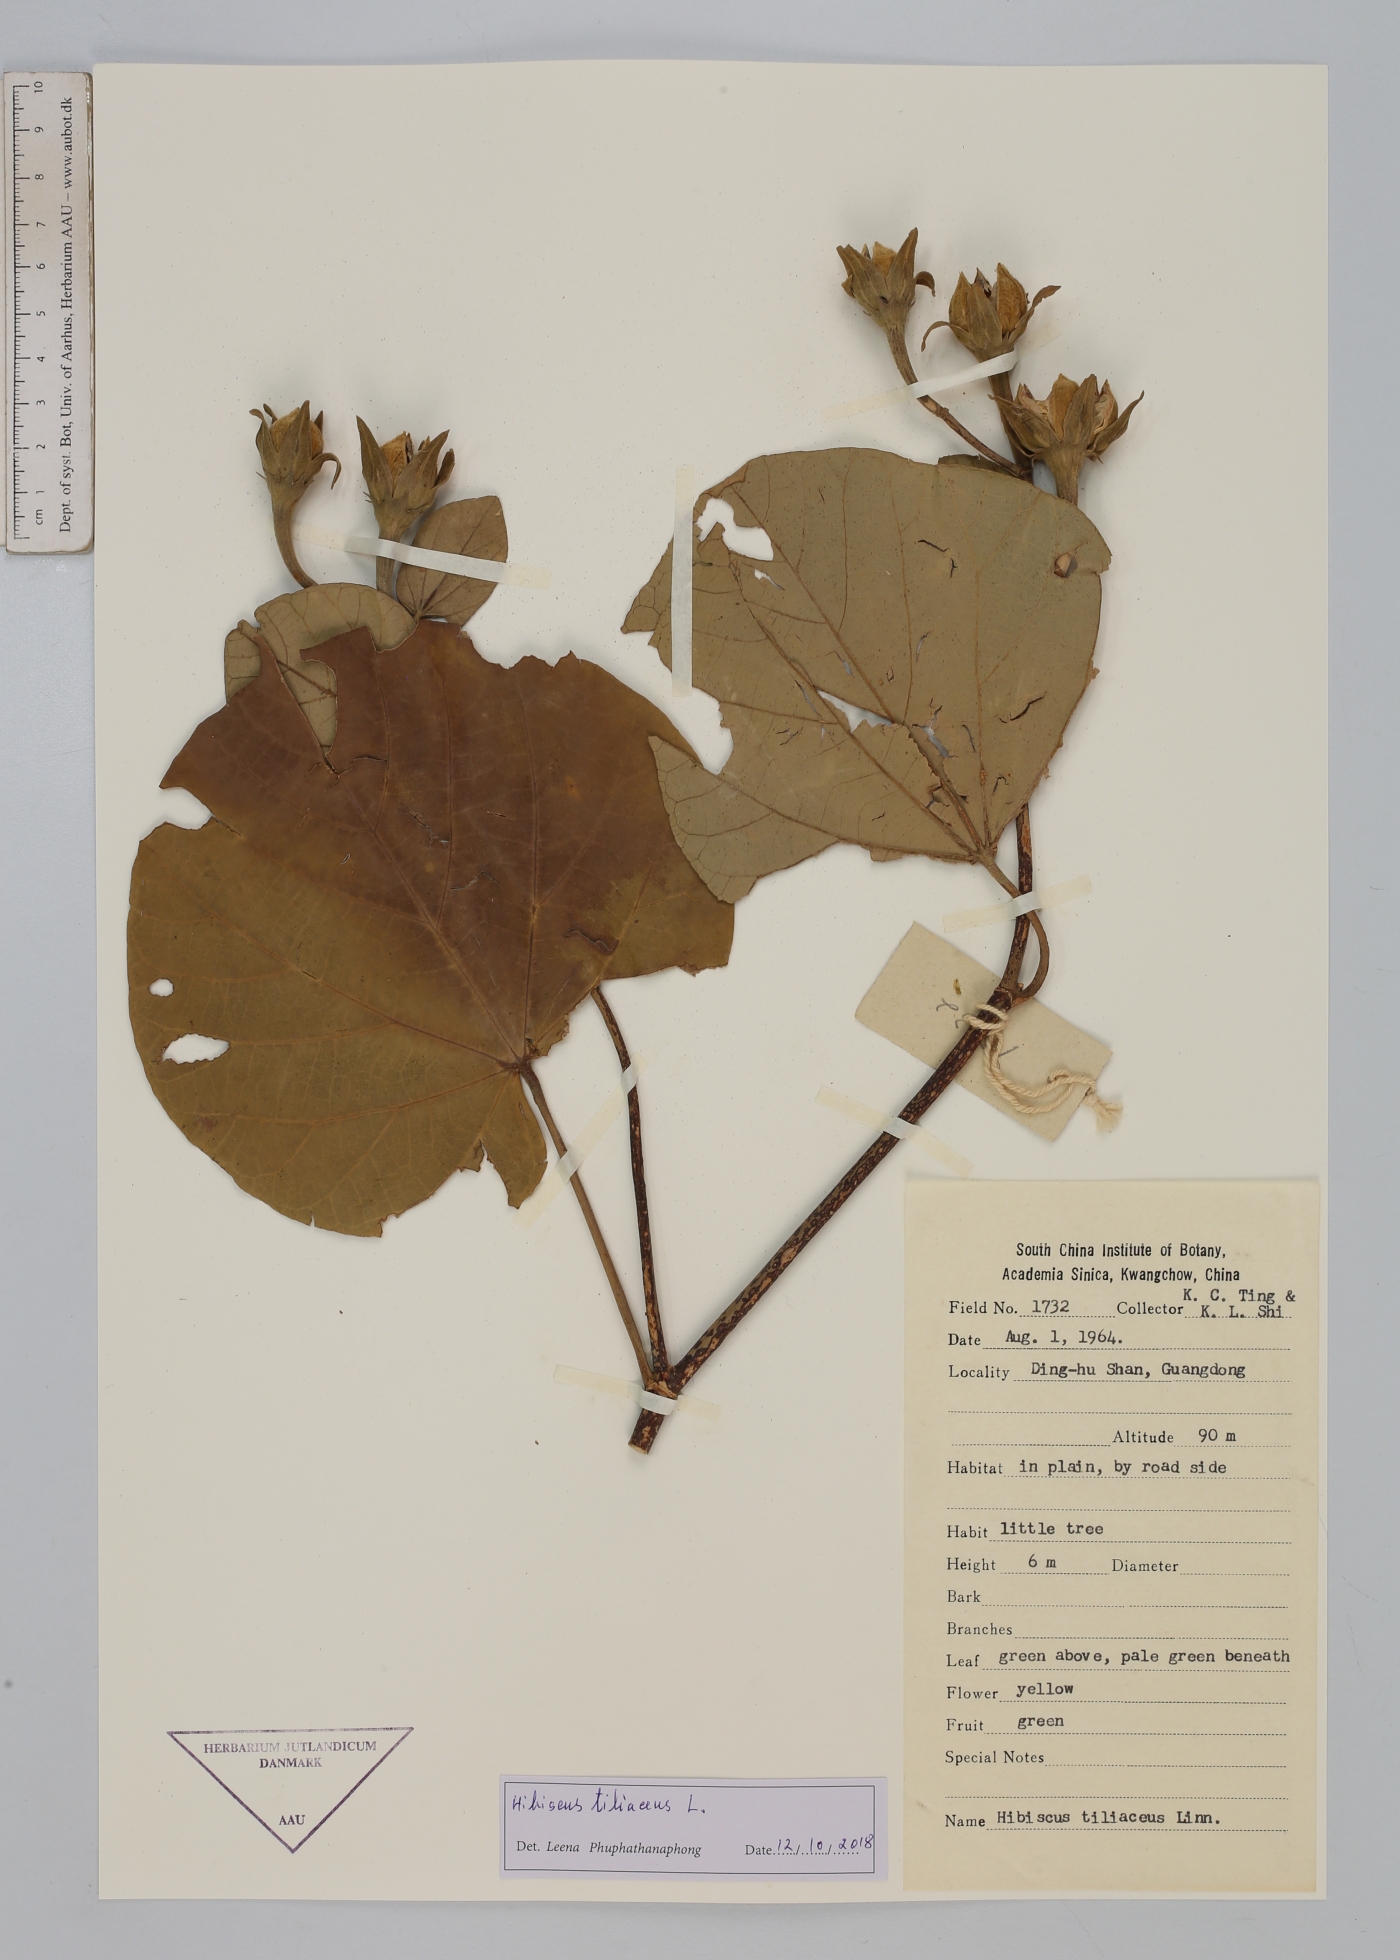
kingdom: Plantae
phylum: Tracheophyta
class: Magnoliopsida
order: Malvales
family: Malvaceae
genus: Talipariti
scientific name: Talipariti tiliaceum
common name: Sea hibiscus
